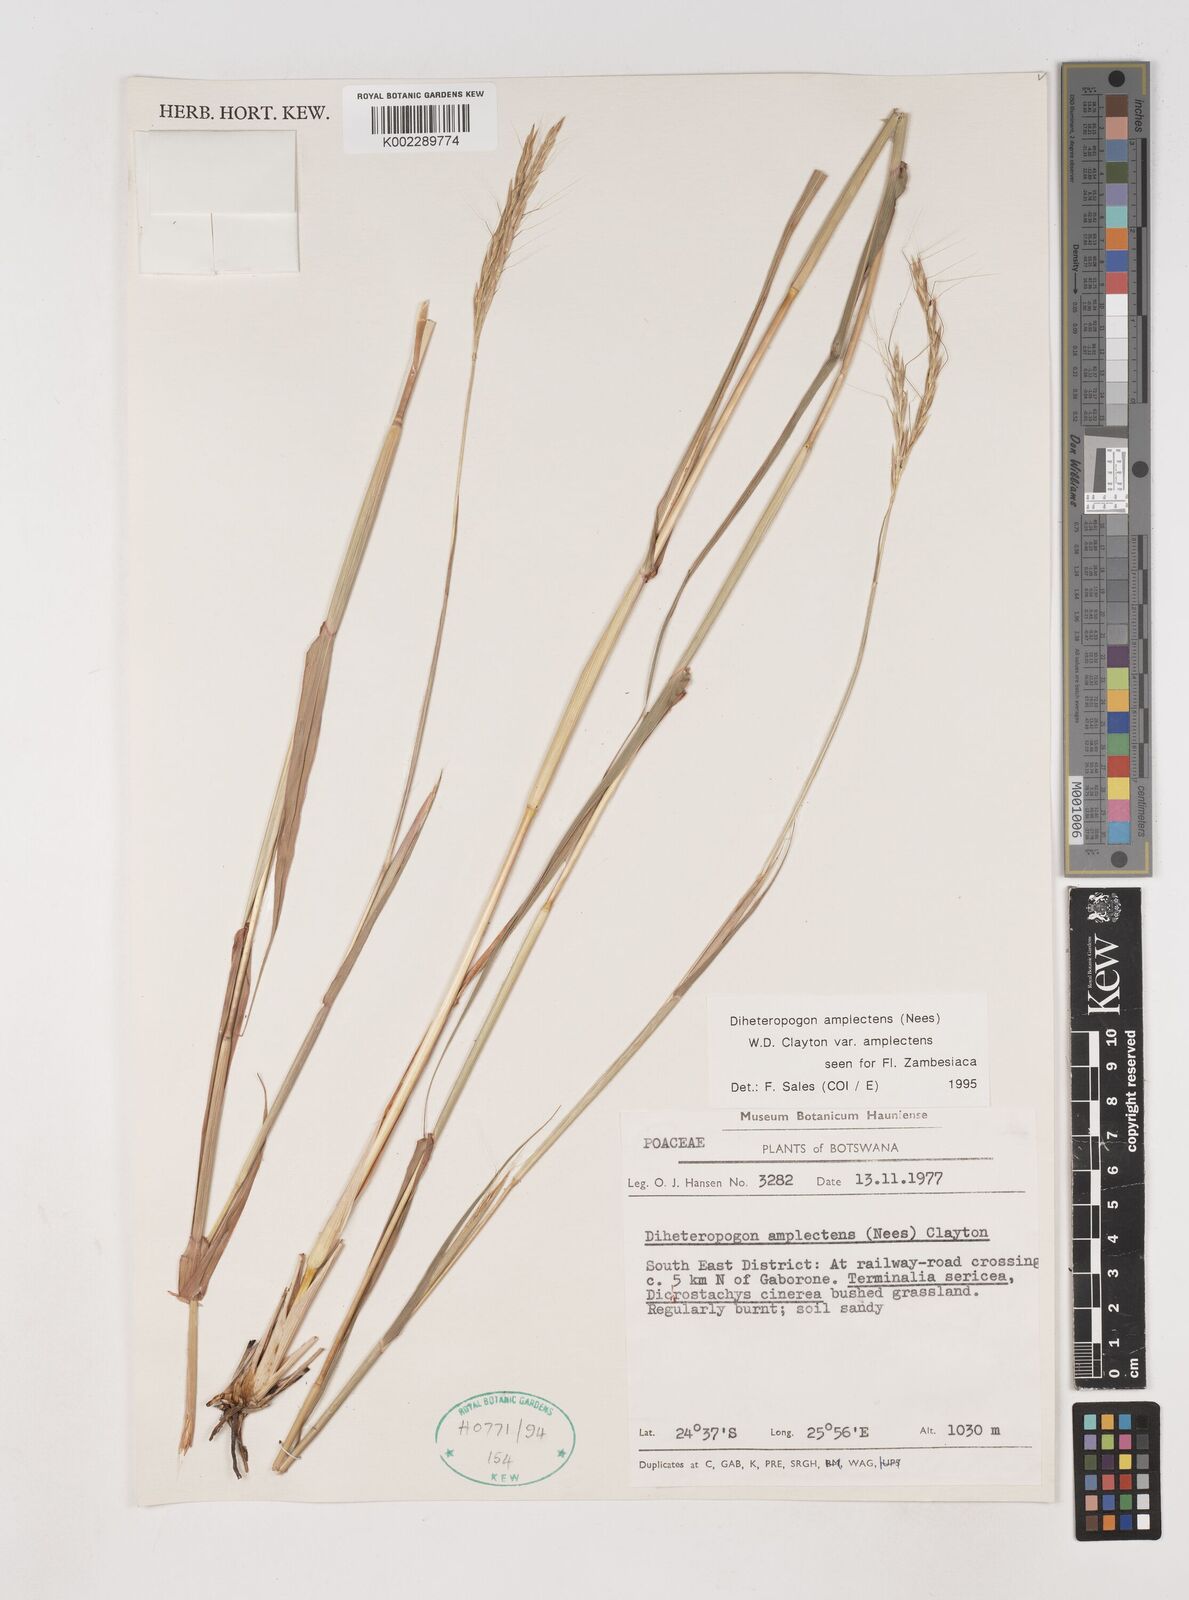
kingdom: Plantae
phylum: Tracheophyta
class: Liliopsida
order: Poales
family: Poaceae
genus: Diheteropogon
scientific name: Diheteropogon amplectens
